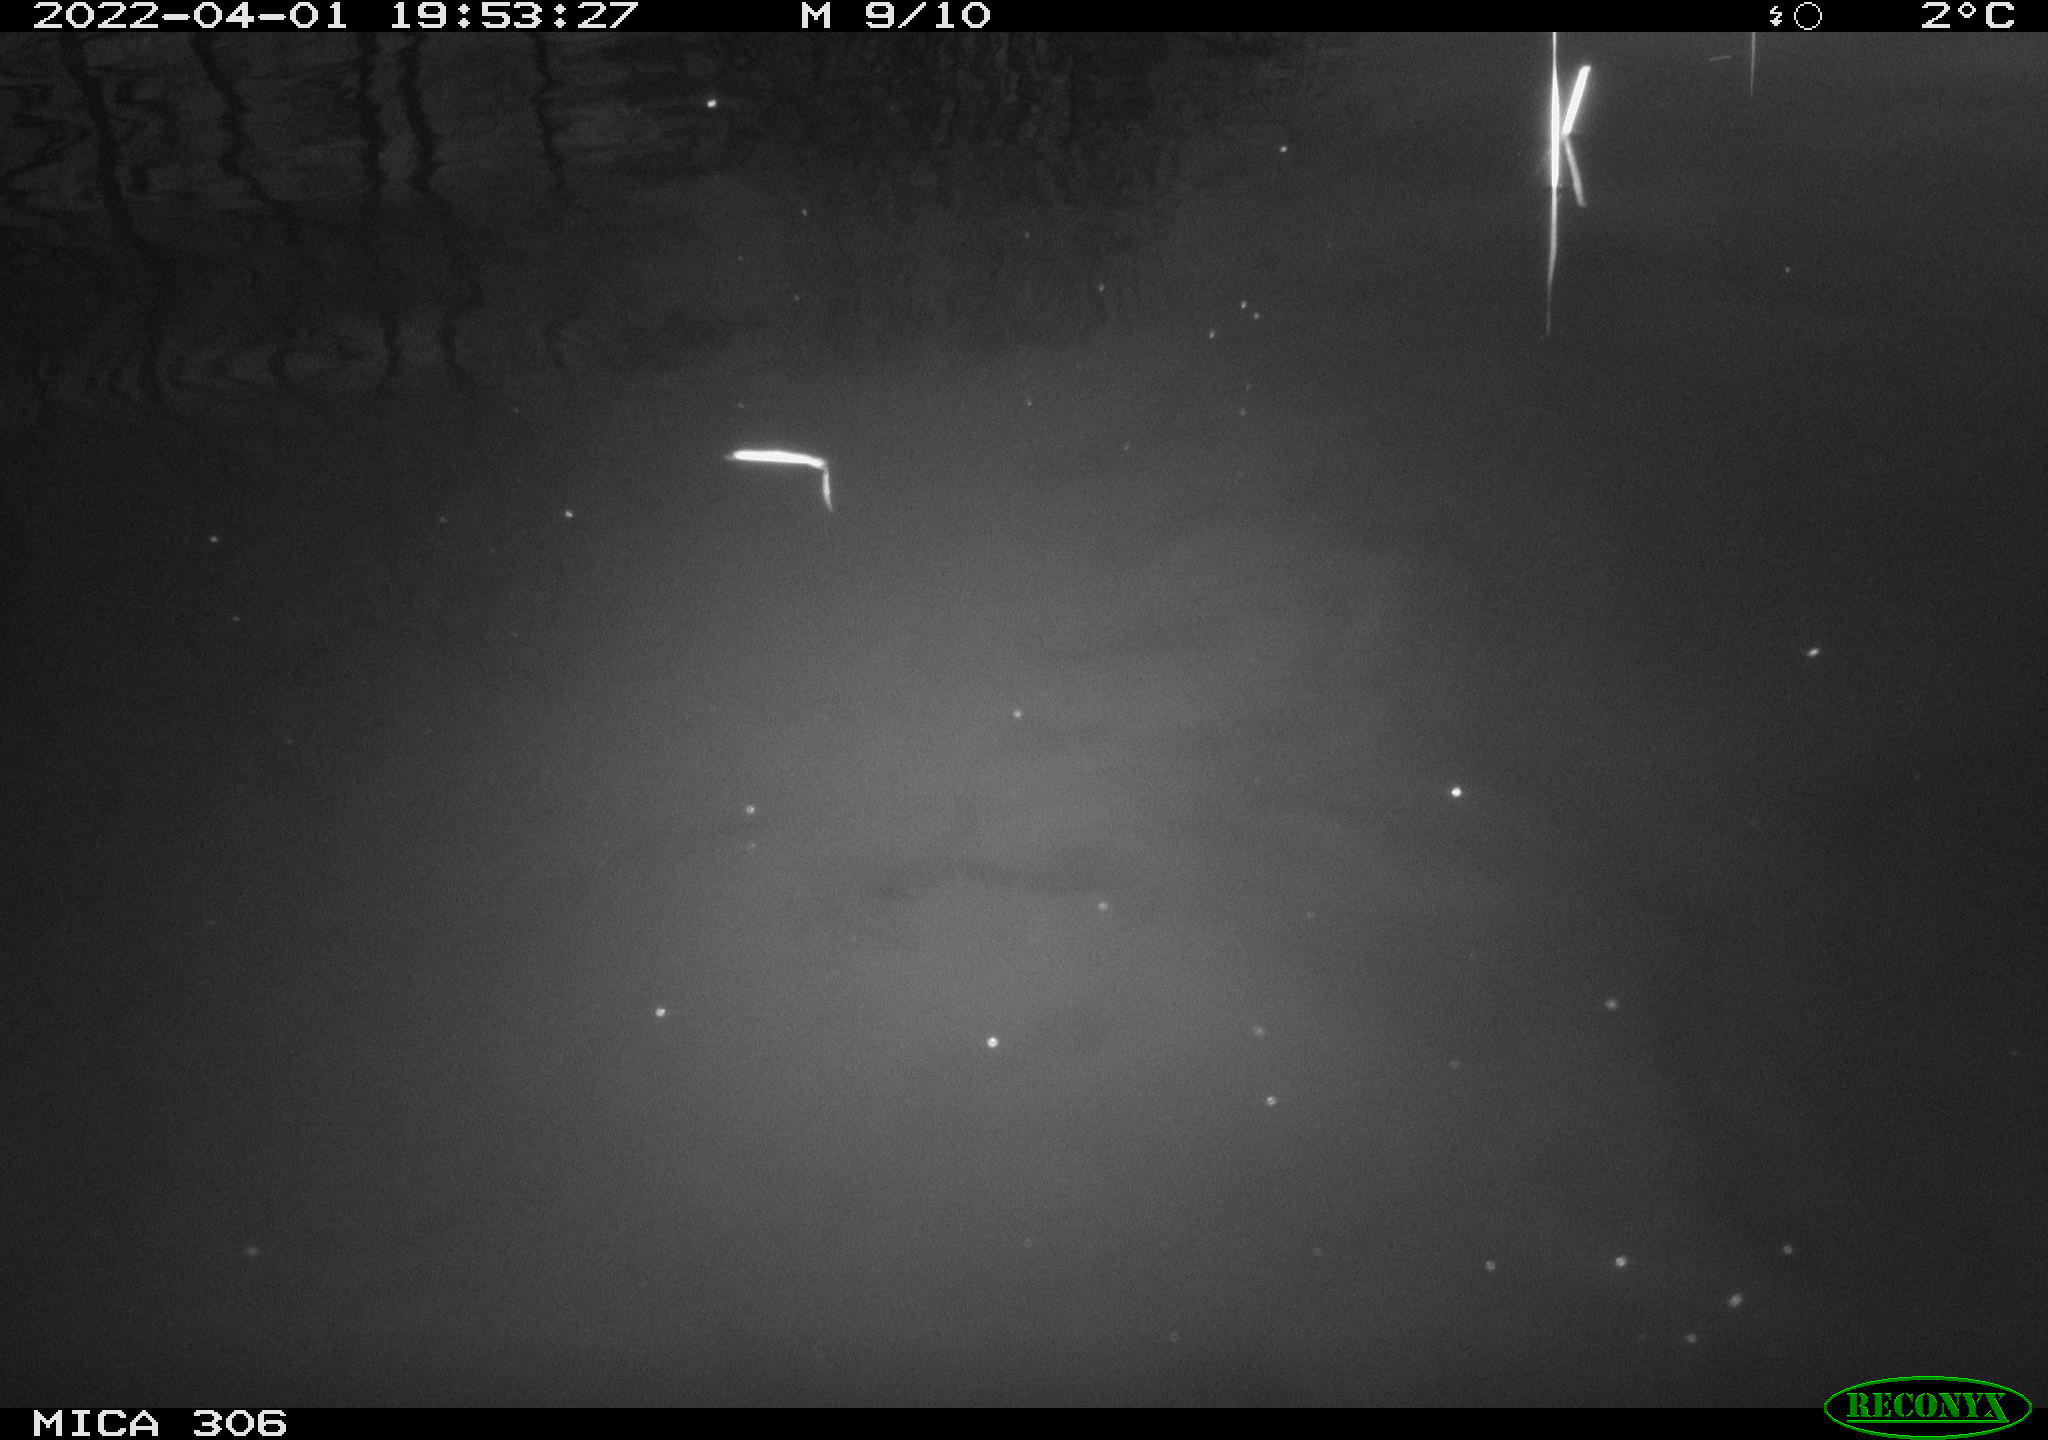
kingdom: Animalia
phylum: Chordata
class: Aves
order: Anseriformes
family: Anatidae
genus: Anas
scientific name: Anas
